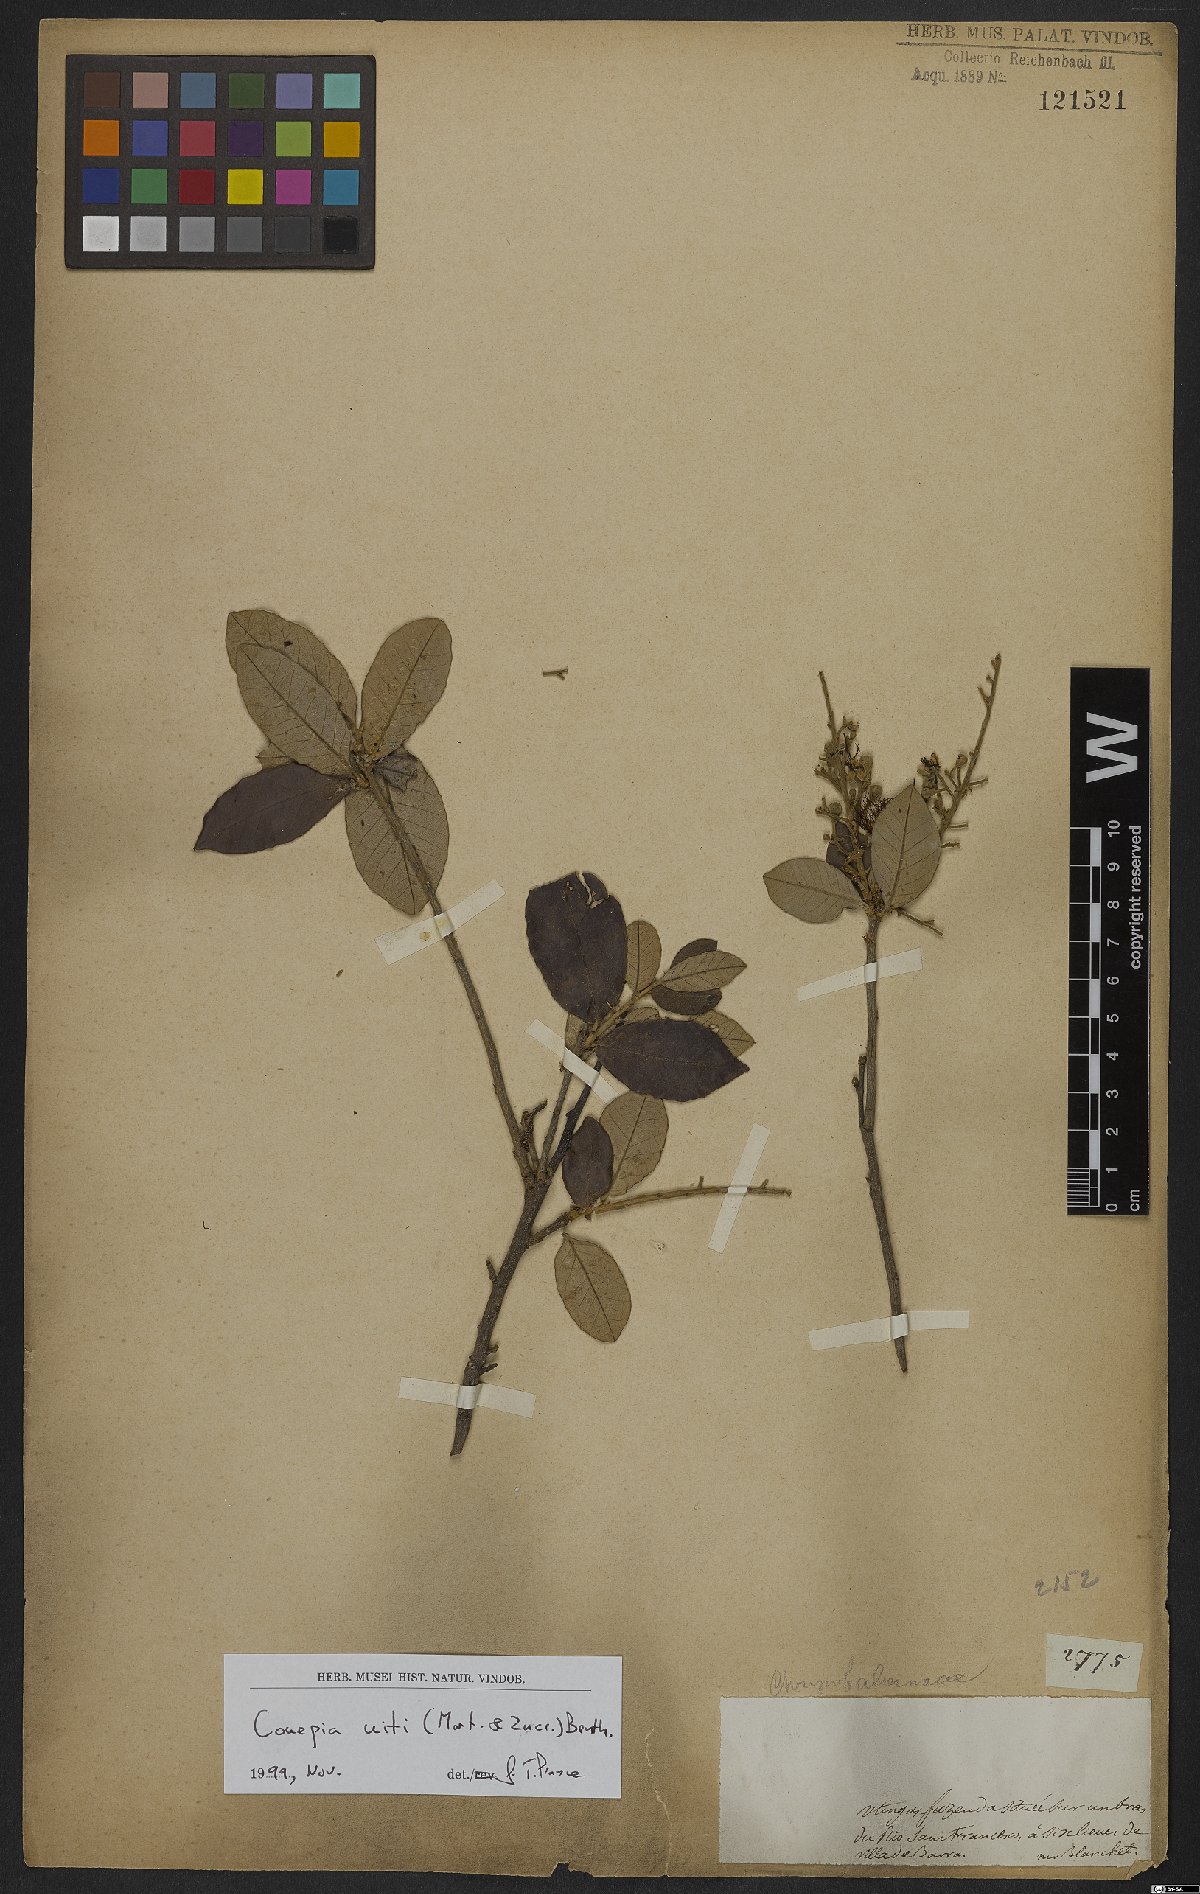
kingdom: Plantae
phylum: Tracheophyta
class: Magnoliopsida
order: Malpighiales
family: Chrysobalanaceae
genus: Couepia
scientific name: Couepia uiti
